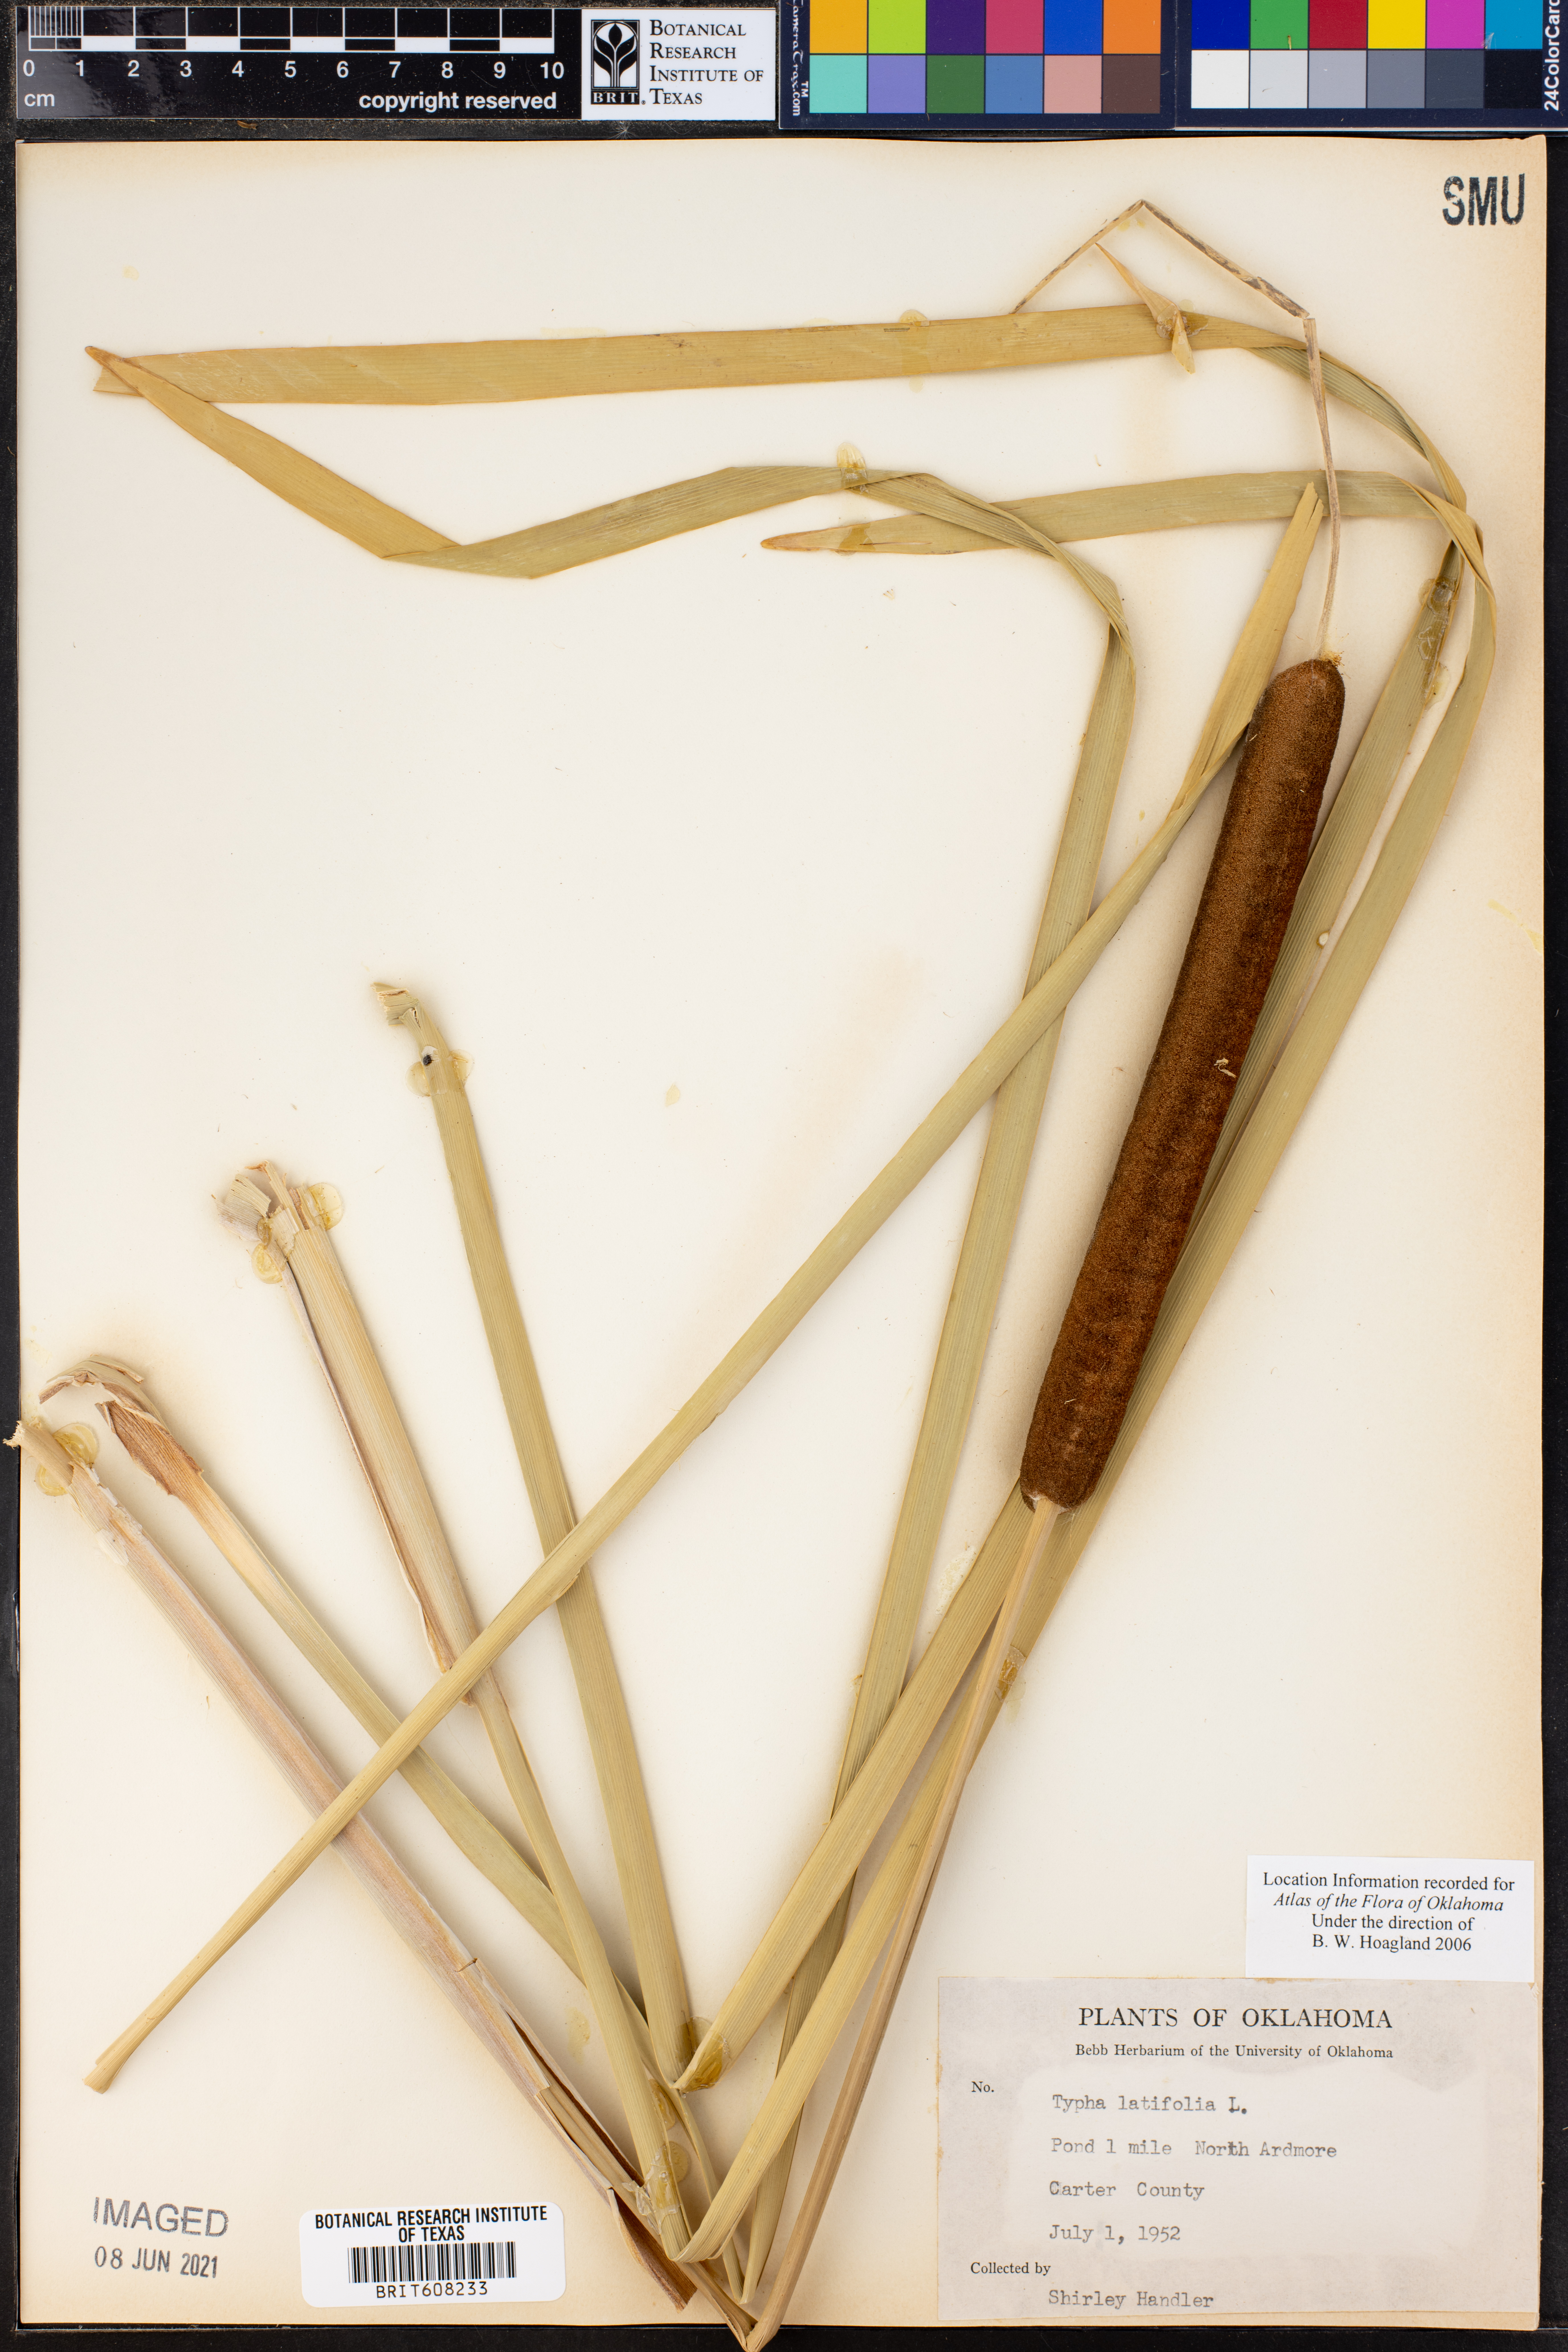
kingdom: Plantae
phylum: Tracheophyta
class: Liliopsida
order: Poales
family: Typhaceae
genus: Typha
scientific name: Typha latifolia
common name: Broadleaf cattail
